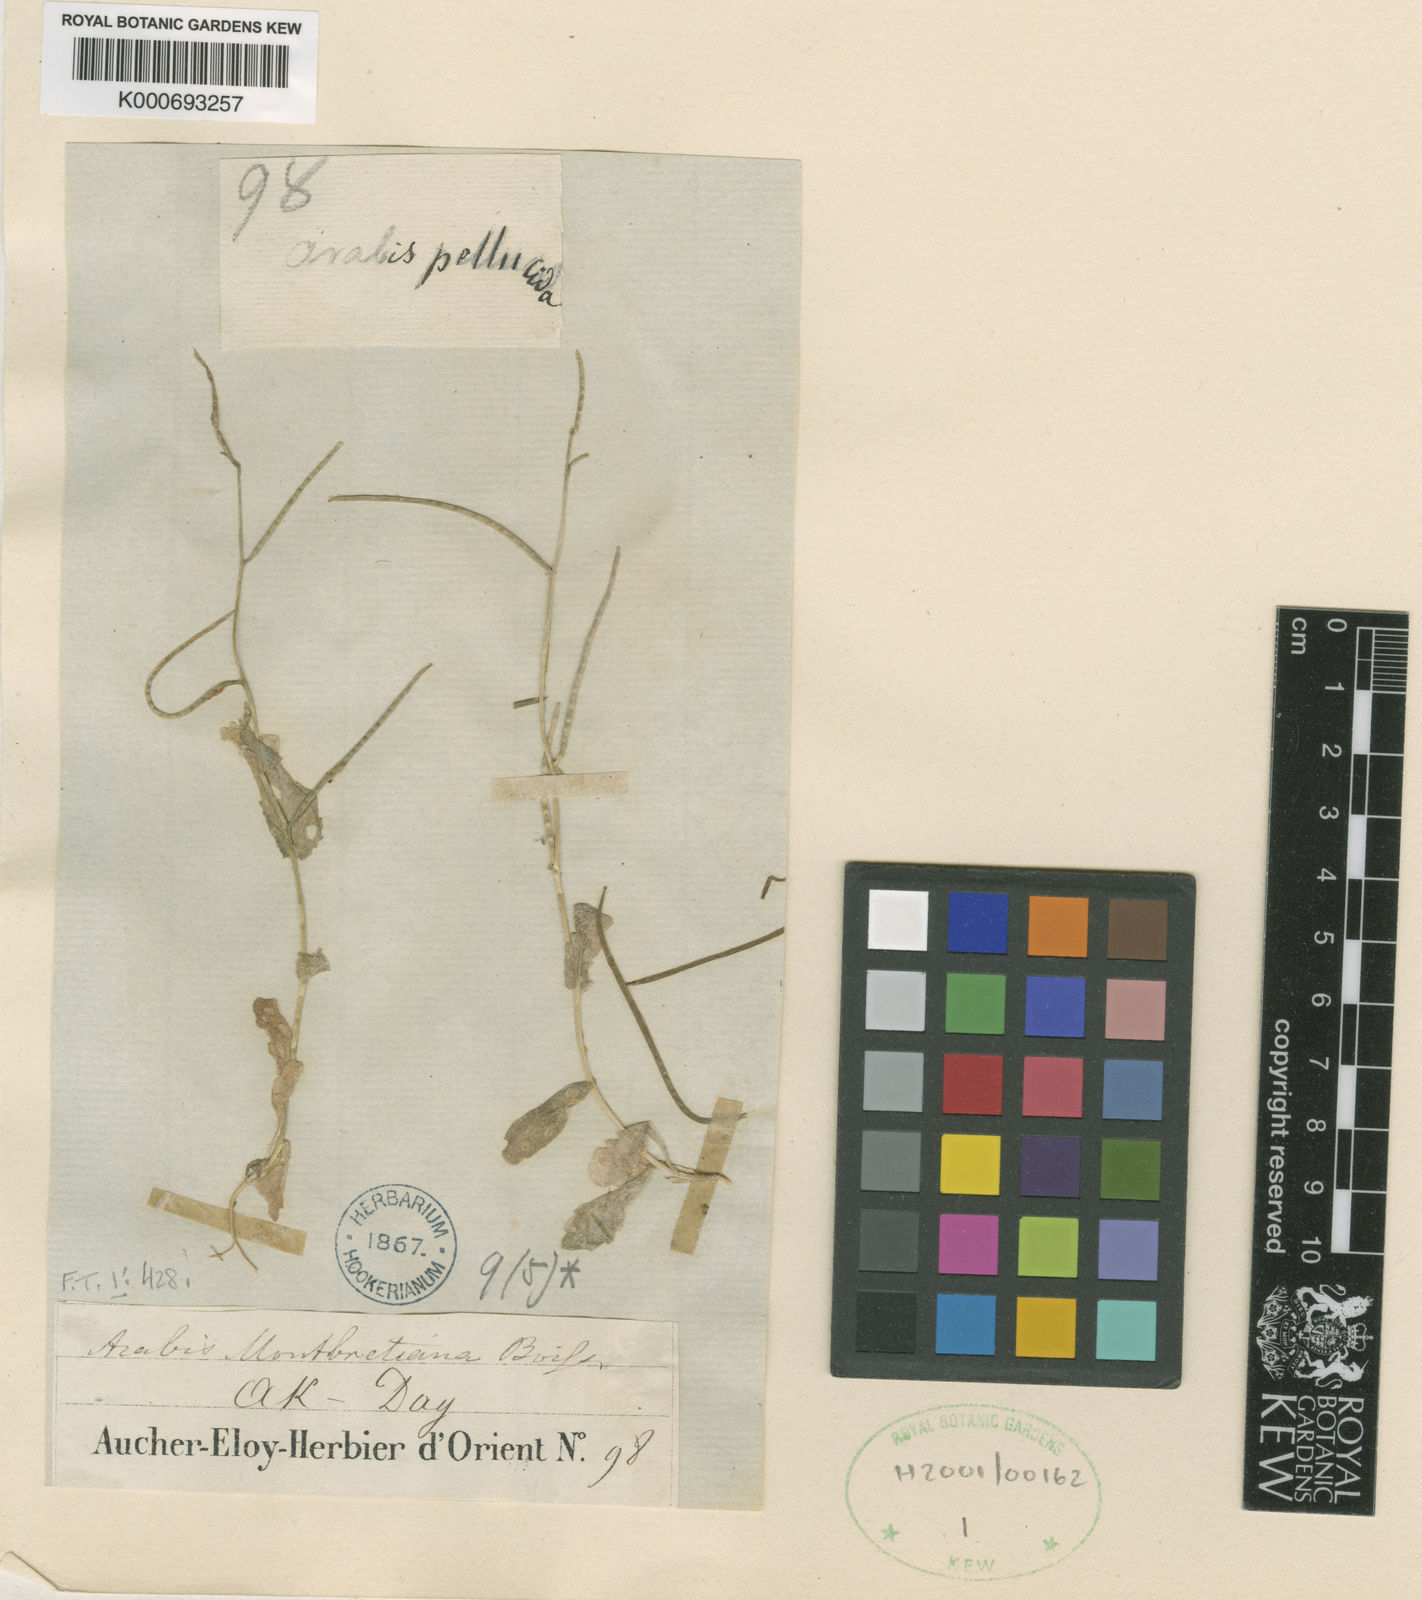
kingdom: Plantae
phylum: Tracheophyta
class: Magnoliopsida
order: Brassicales
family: Brassicaceae
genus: Arabis
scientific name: Arabis auriculata
